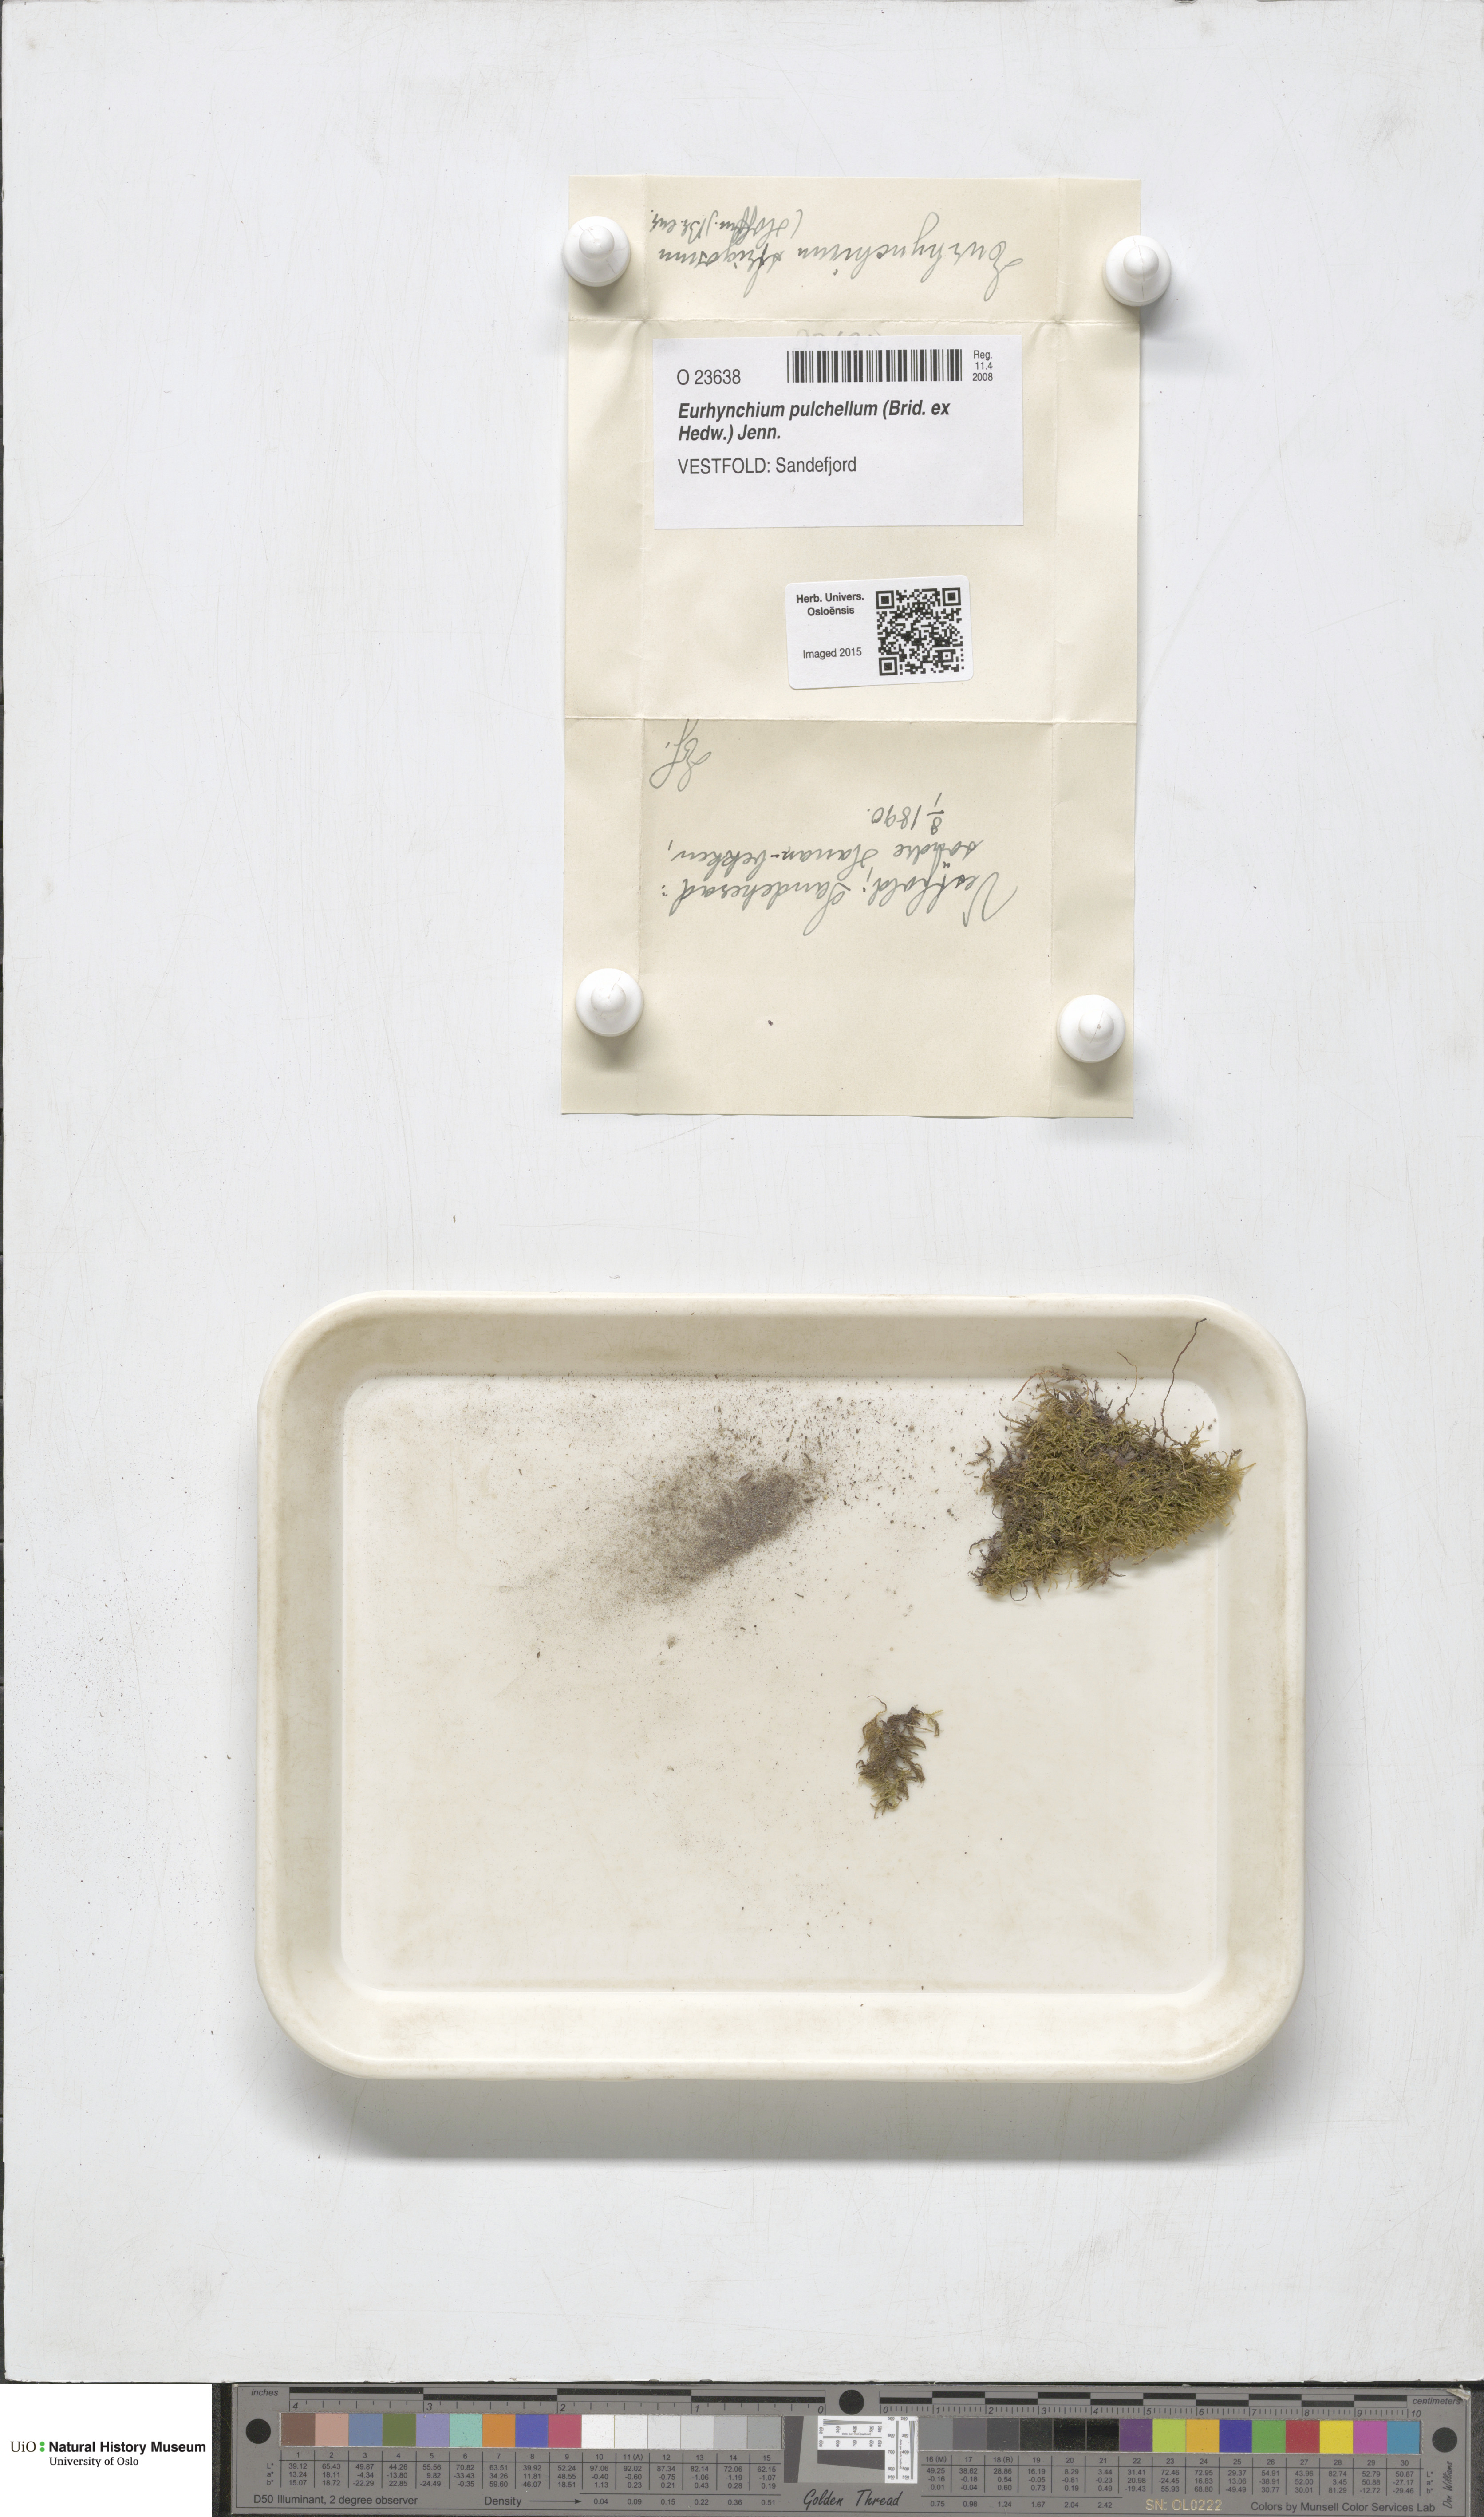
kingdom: Plantae
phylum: Bryophyta
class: Bryopsida
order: Hypnales
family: Brachytheciaceae
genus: Eurhynchiastrum
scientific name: Eurhynchiastrum pulchellum
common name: Elegant beaked moss
